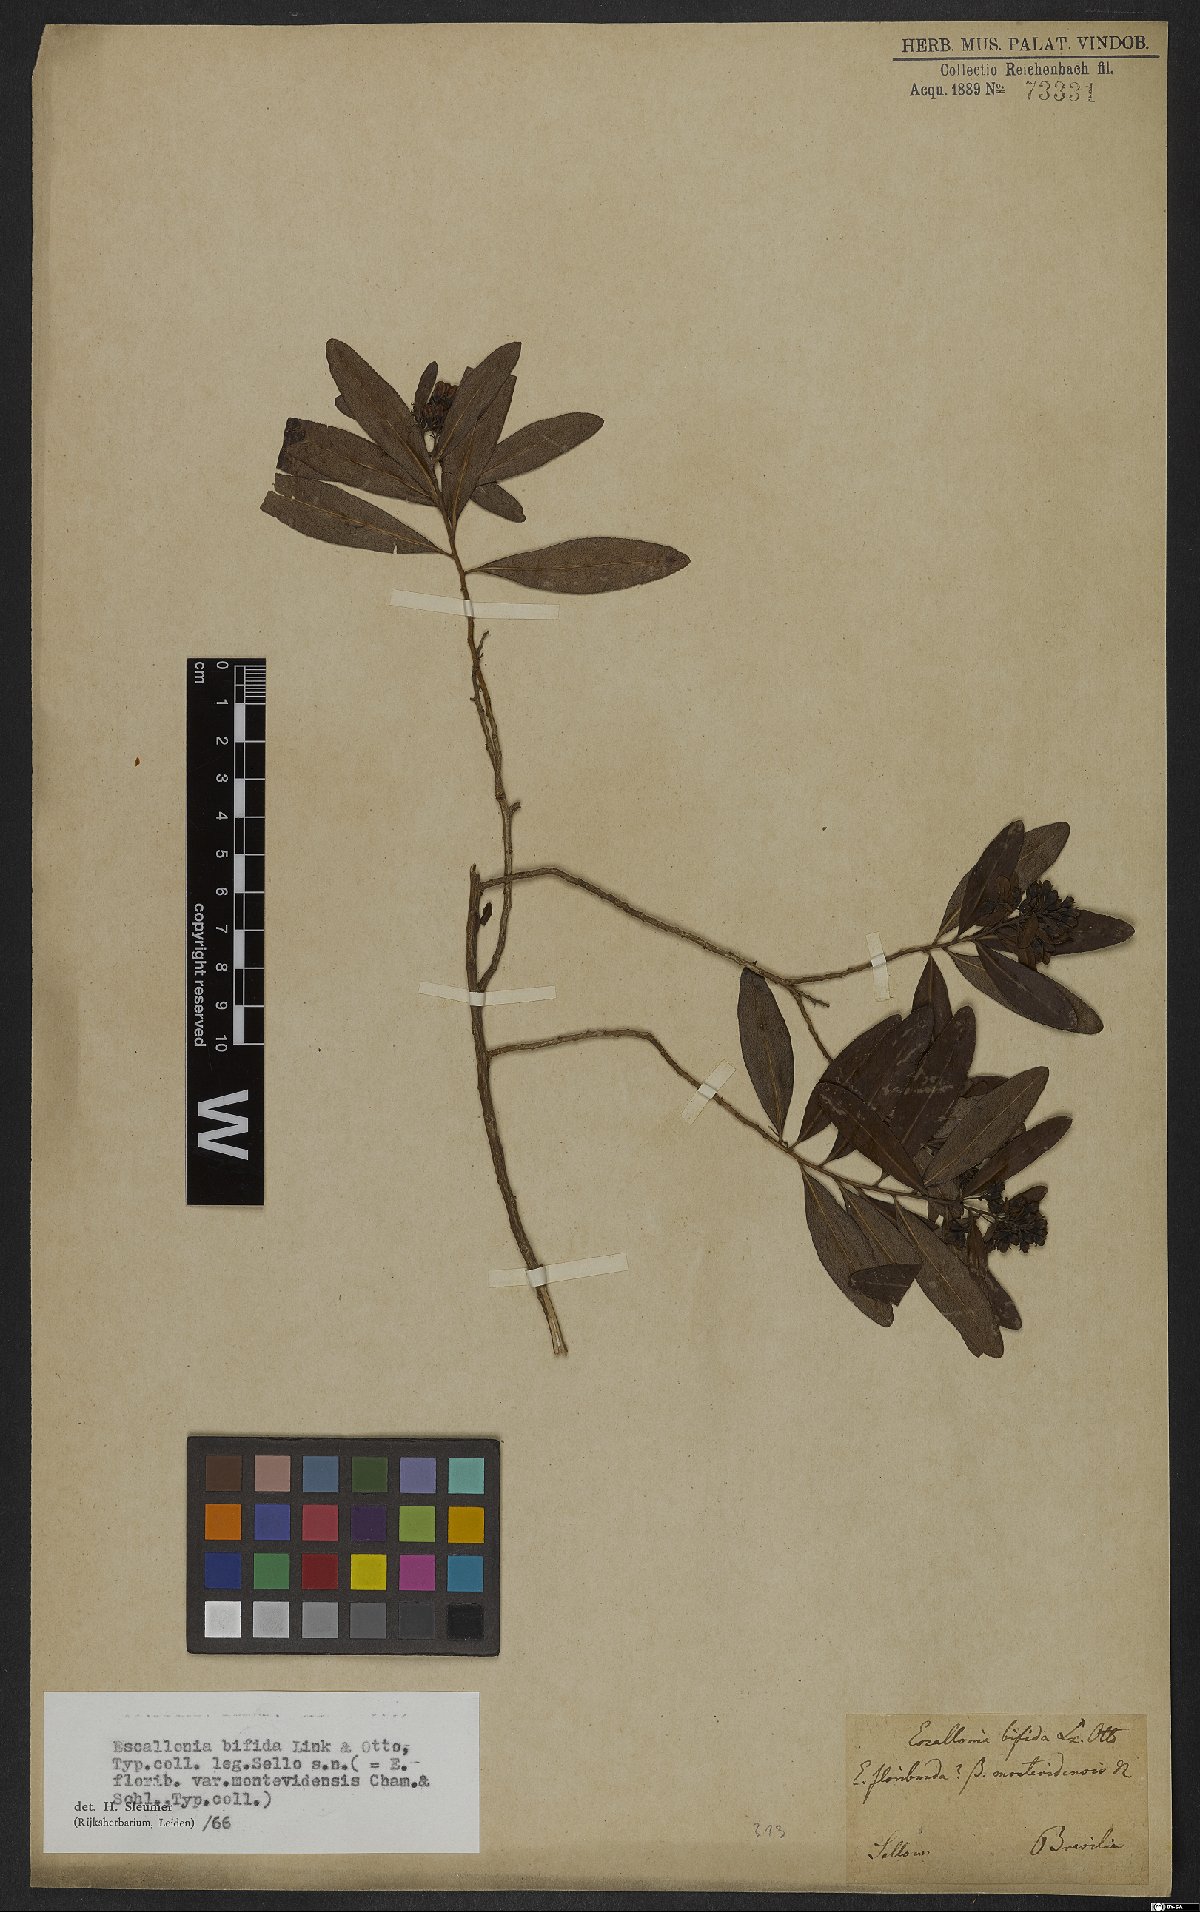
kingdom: Plantae
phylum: Tracheophyta
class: Magnoliopsida
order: Escalloniales
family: Escalloniaceae
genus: Escallonia
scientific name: Escallonia bifida
